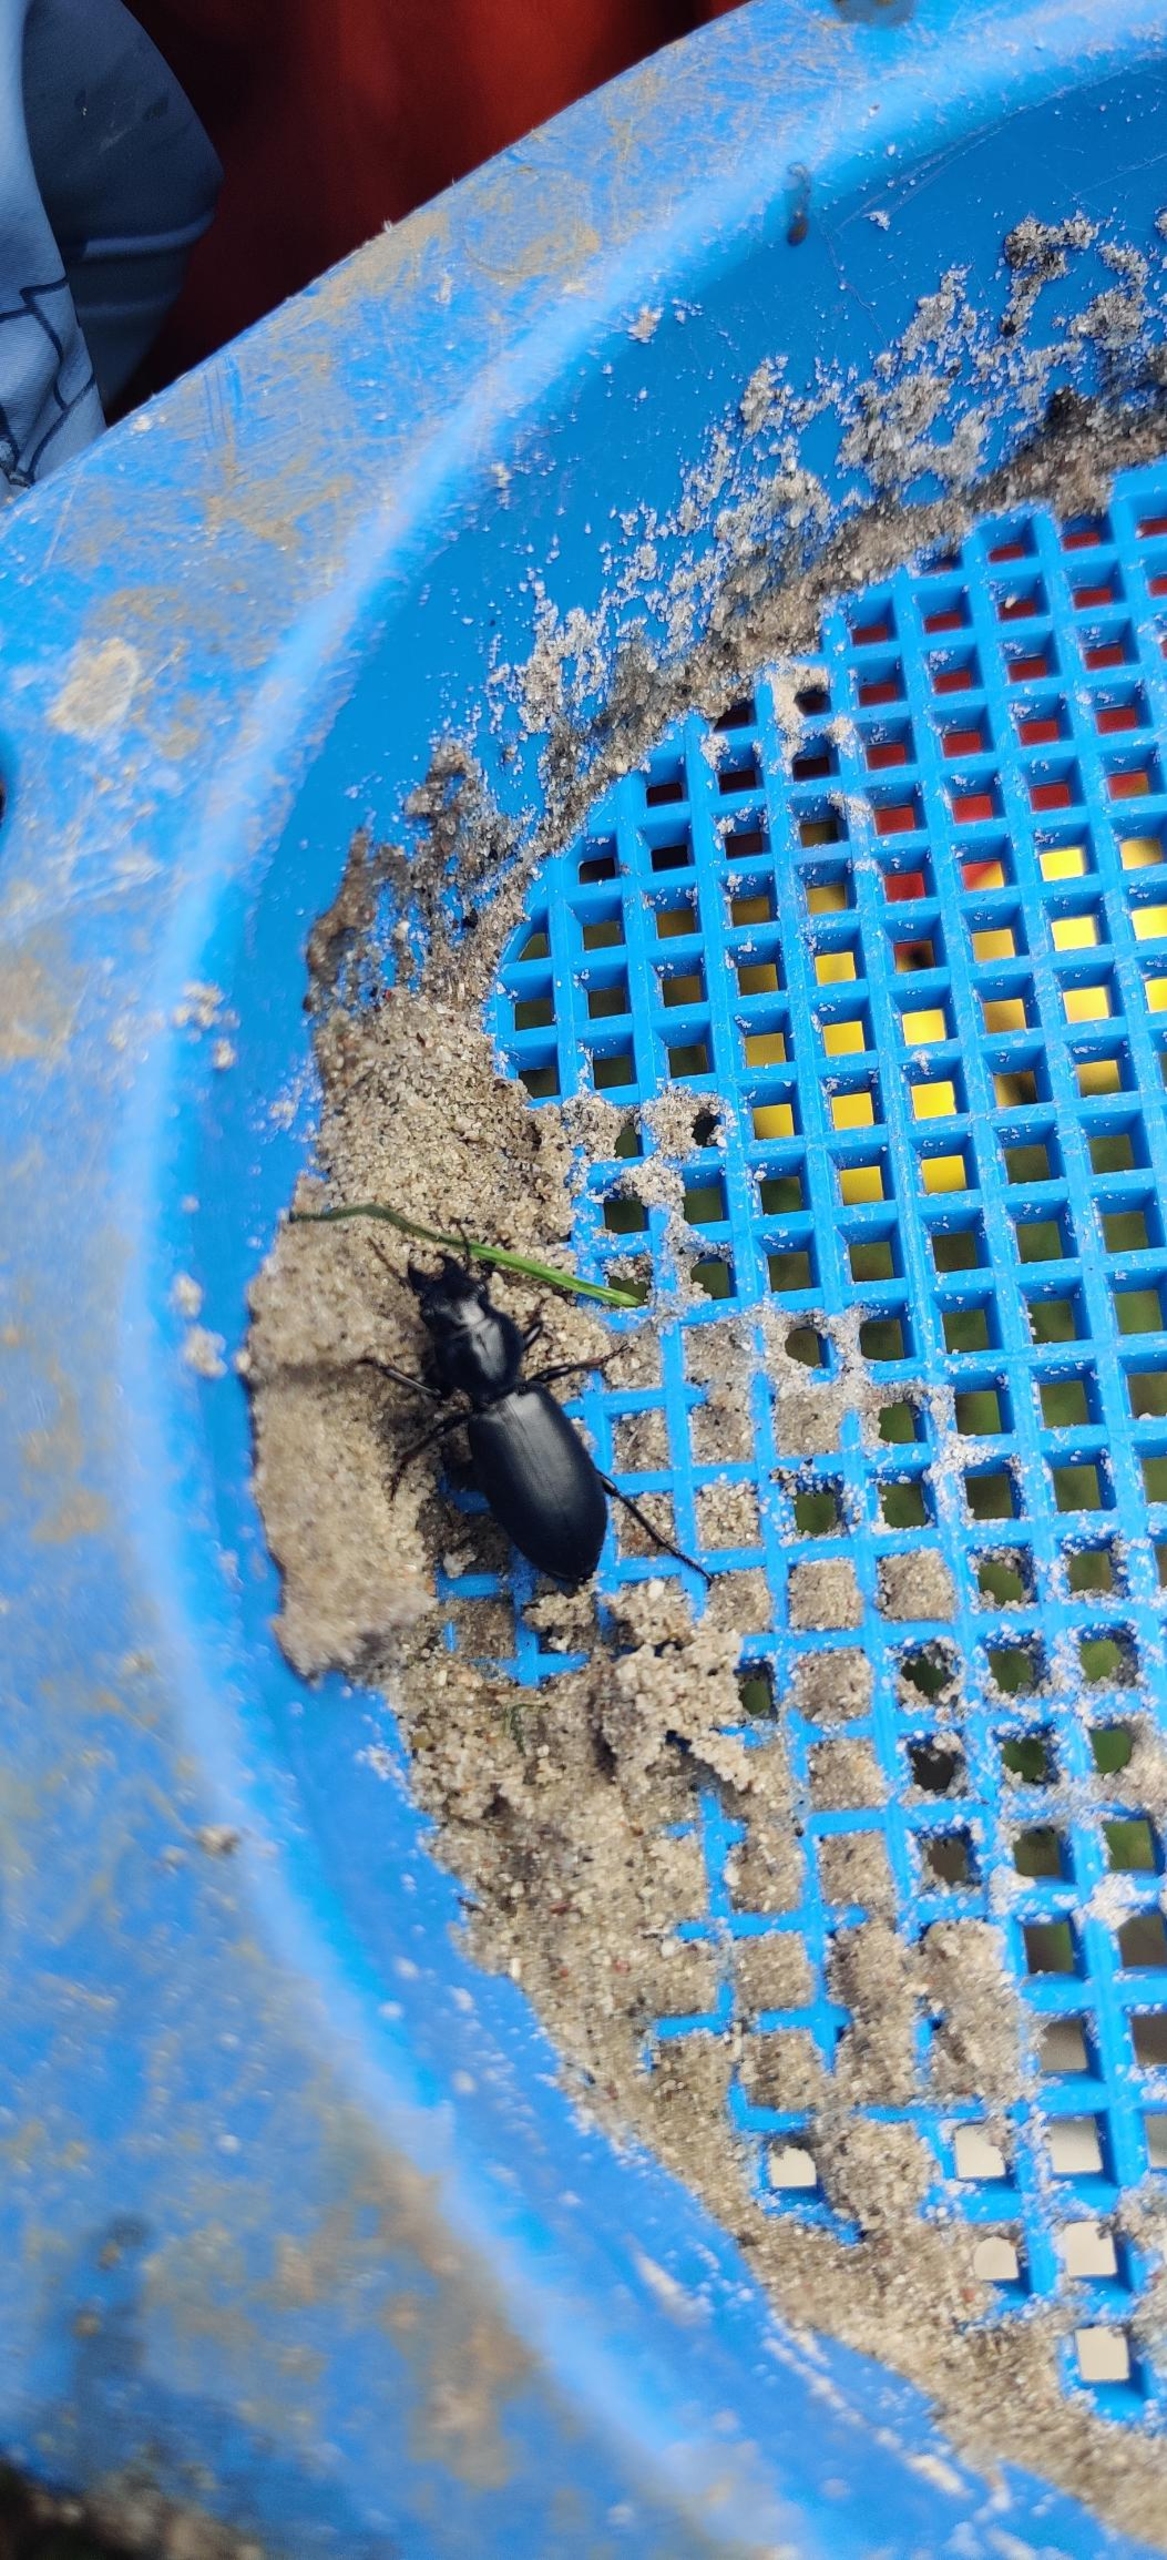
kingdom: Animalia
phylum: Arthropoda
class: Insecta
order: Coleoptera
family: Carabidae
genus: Broscus
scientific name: Broscus cephalotes
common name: Sandgraver
